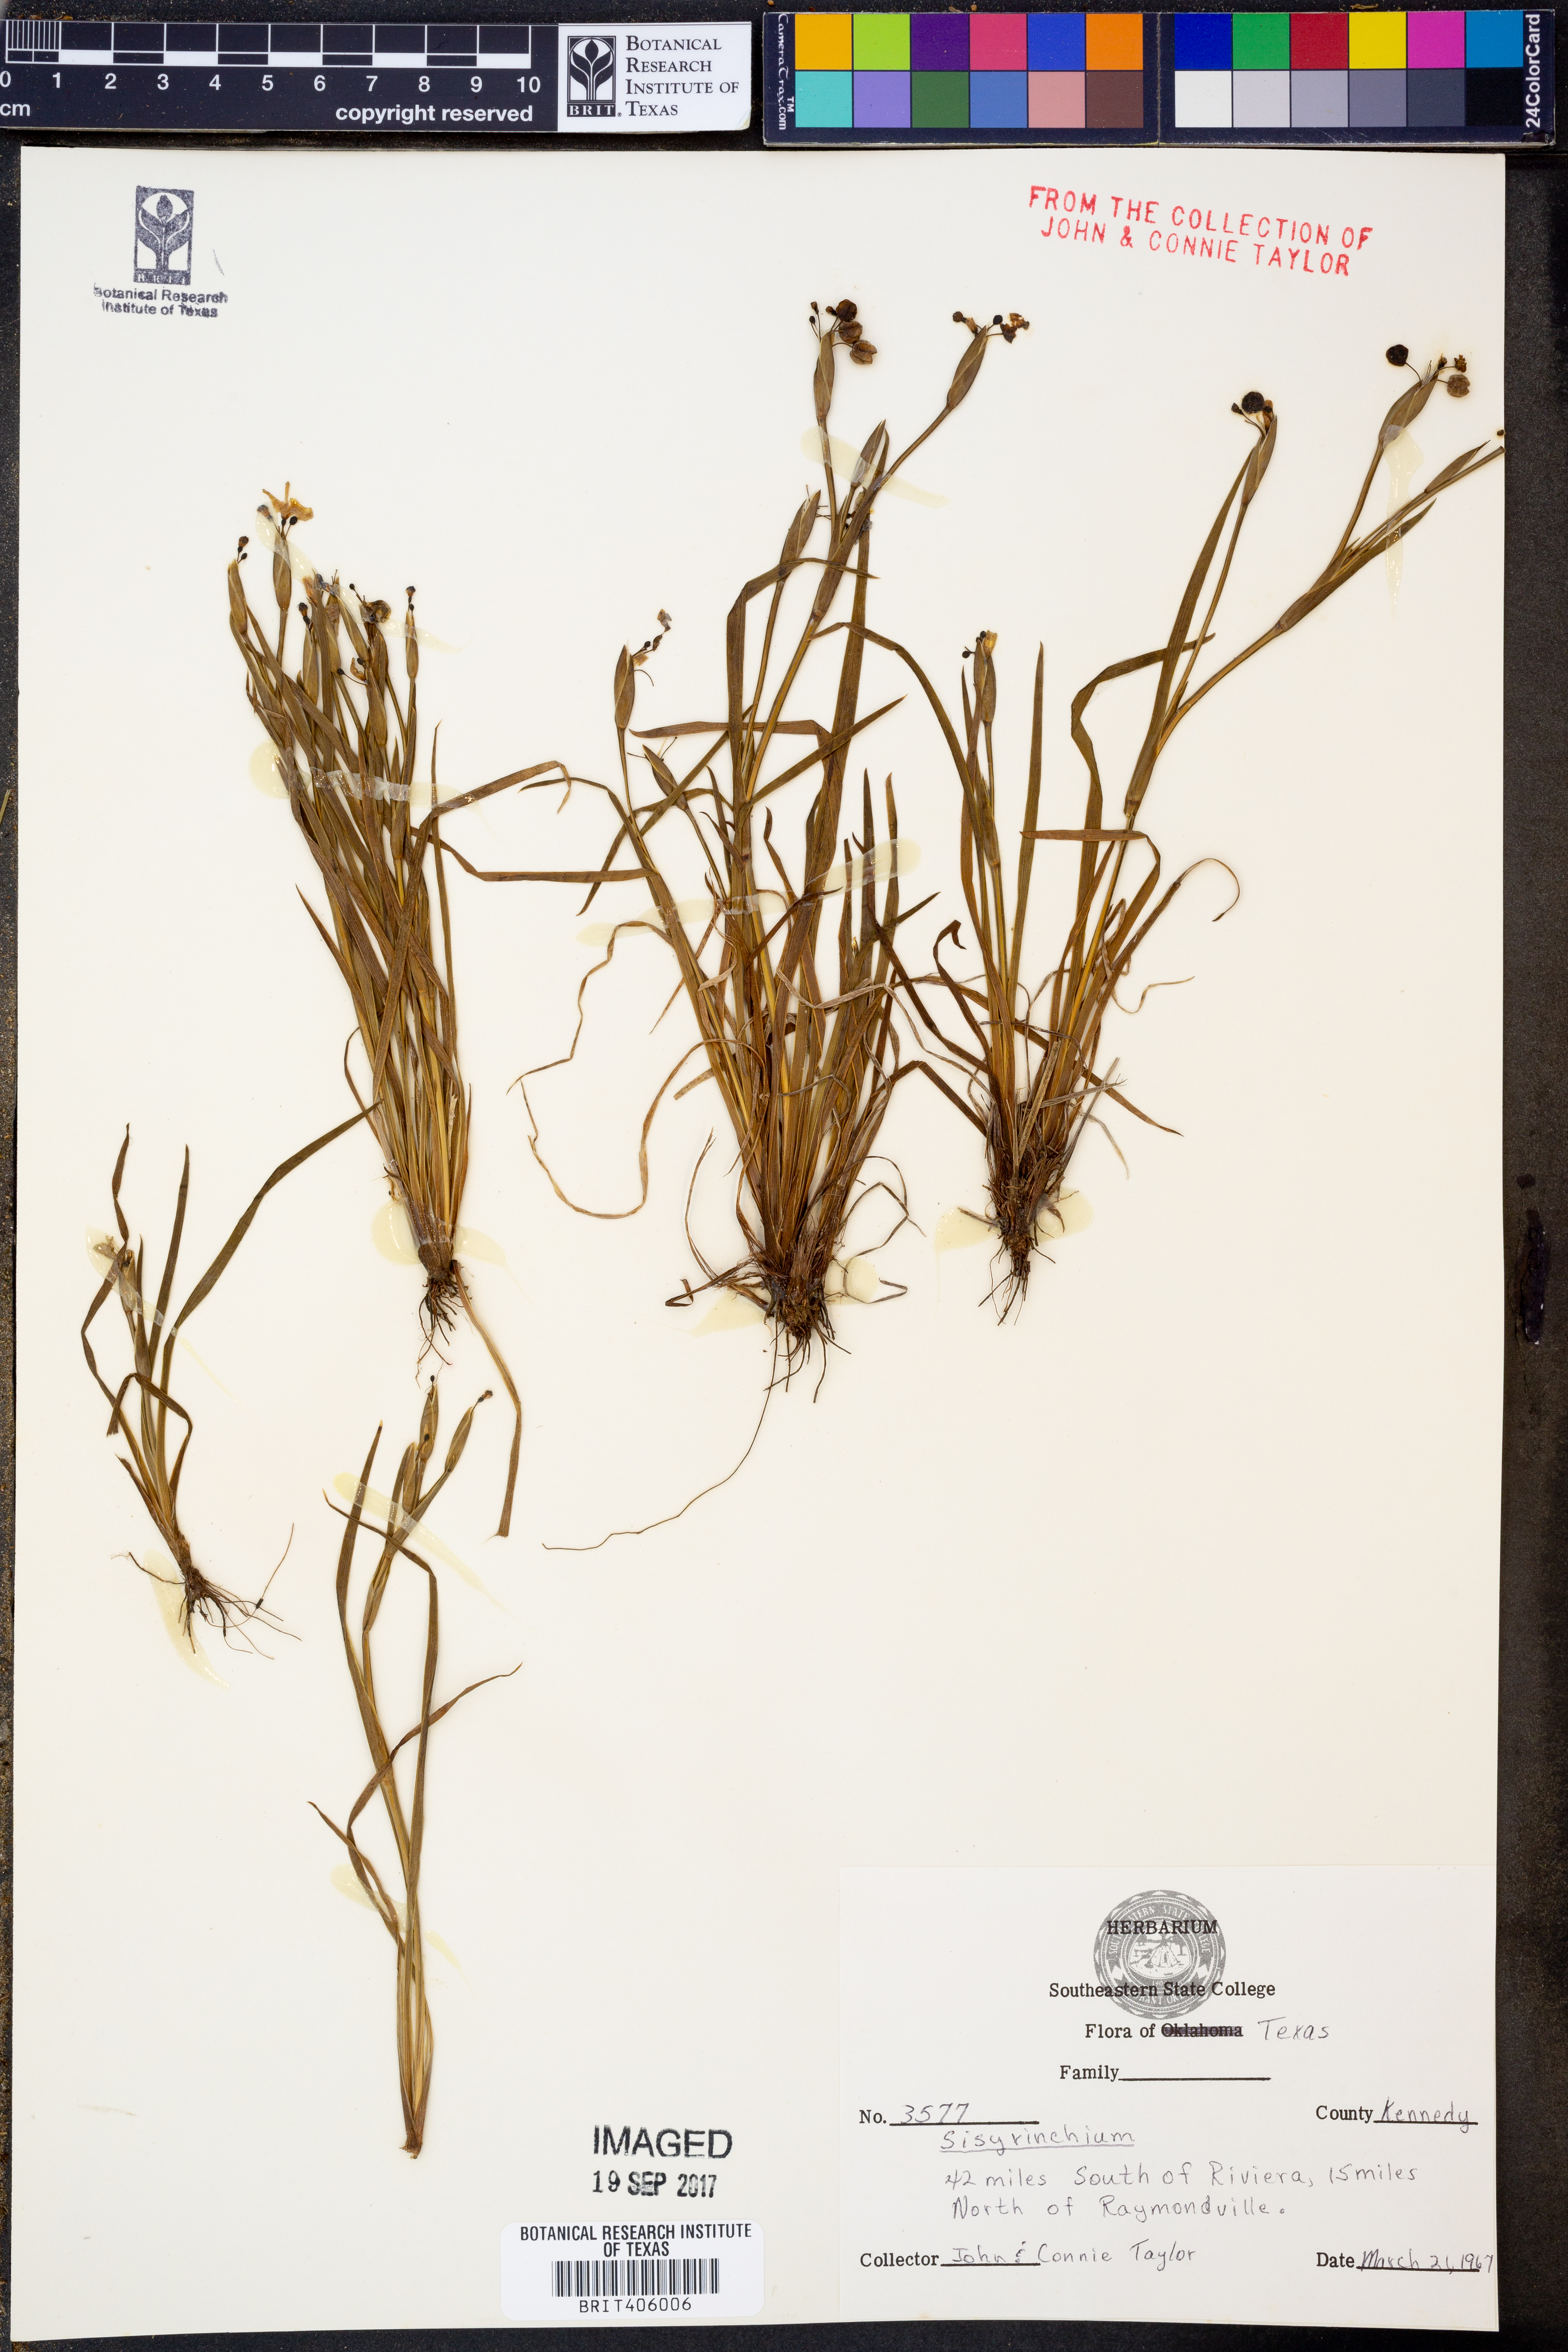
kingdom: Plantae
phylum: Tracheophyta
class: Liliopsida
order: Asparagales
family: Iridaceae
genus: Sisyrinchium
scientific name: Sisyrinchium
